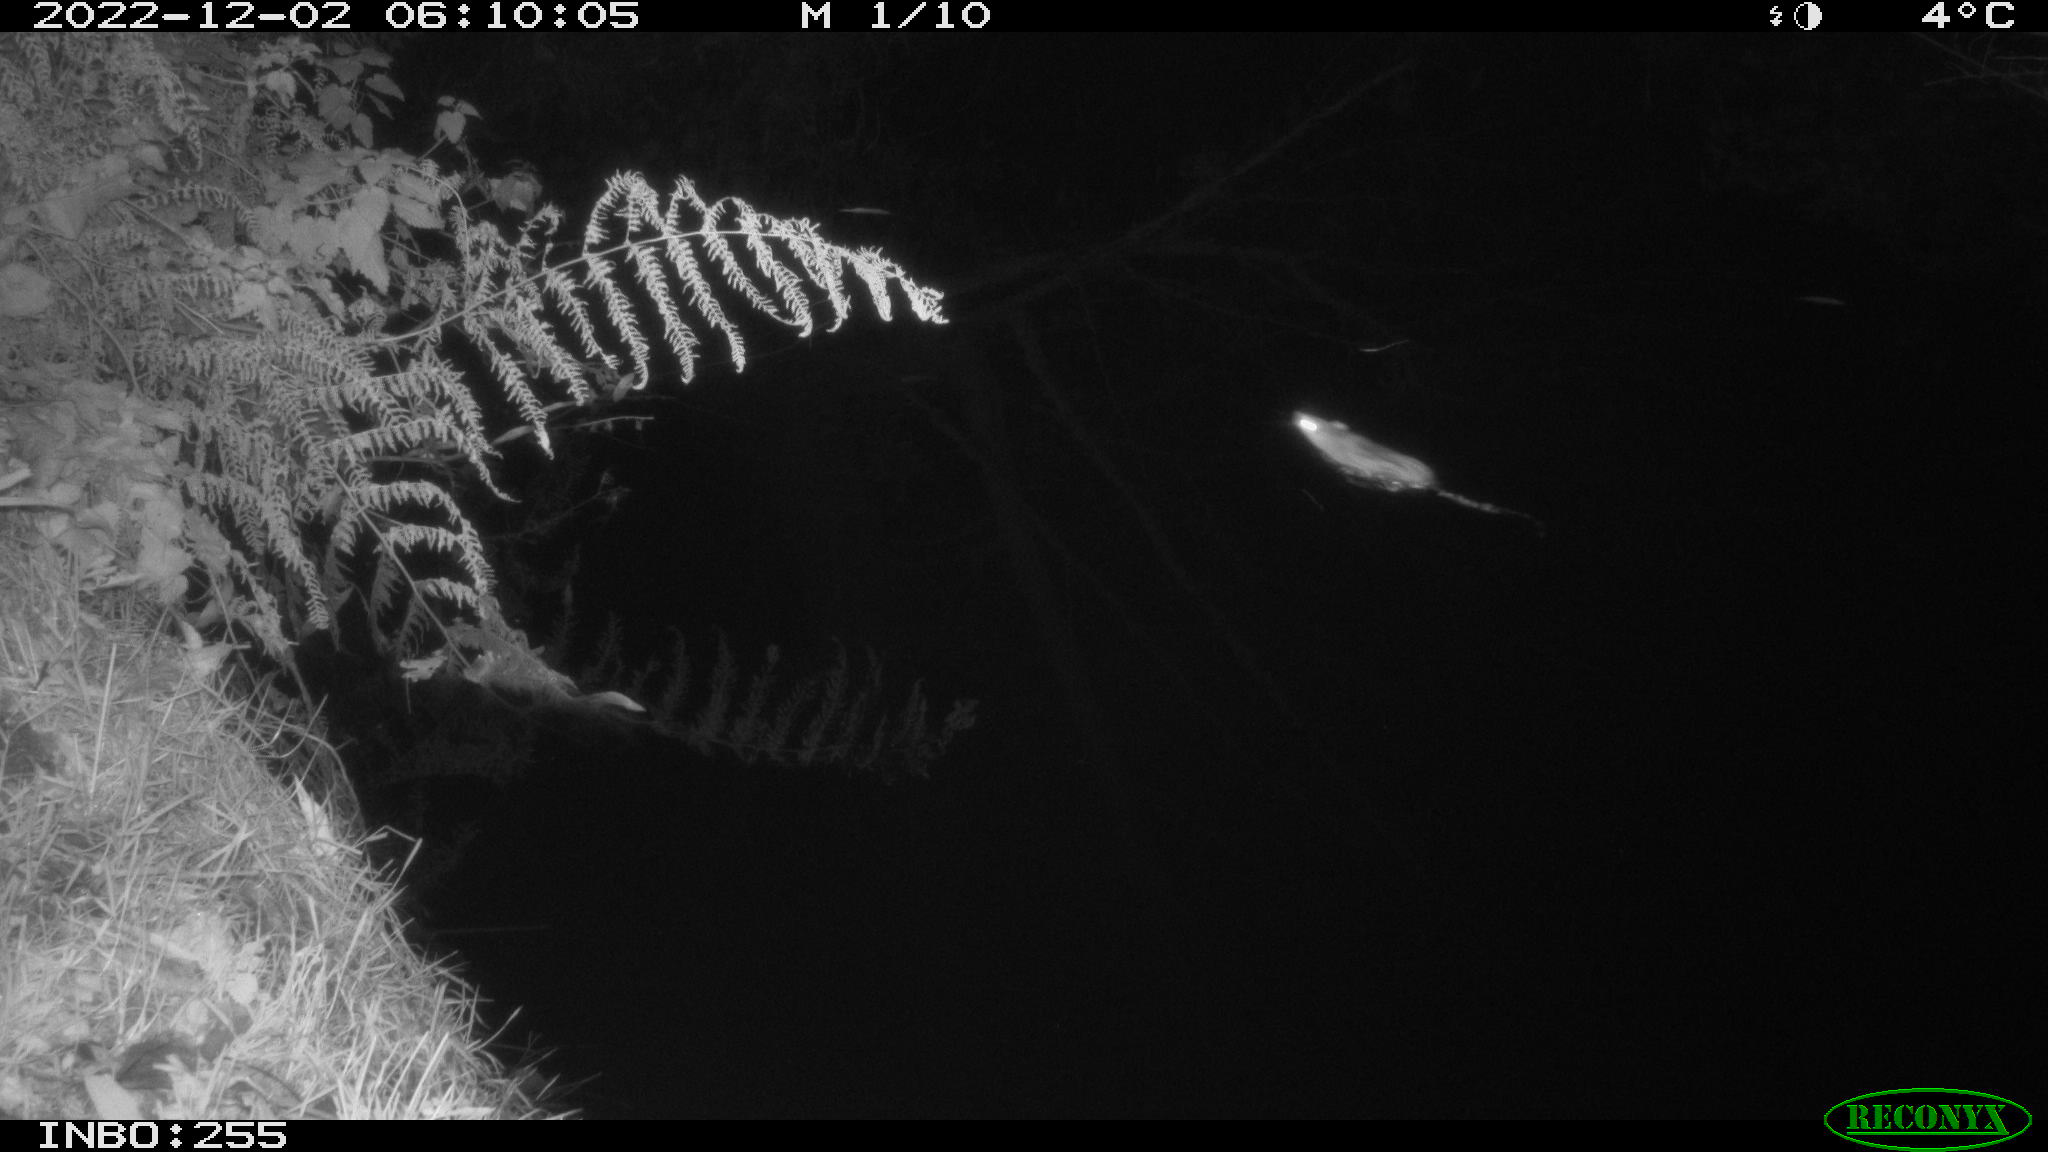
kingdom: Animalia
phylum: Chordata
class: Mammalia
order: Rodentia
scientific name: Rodentia
